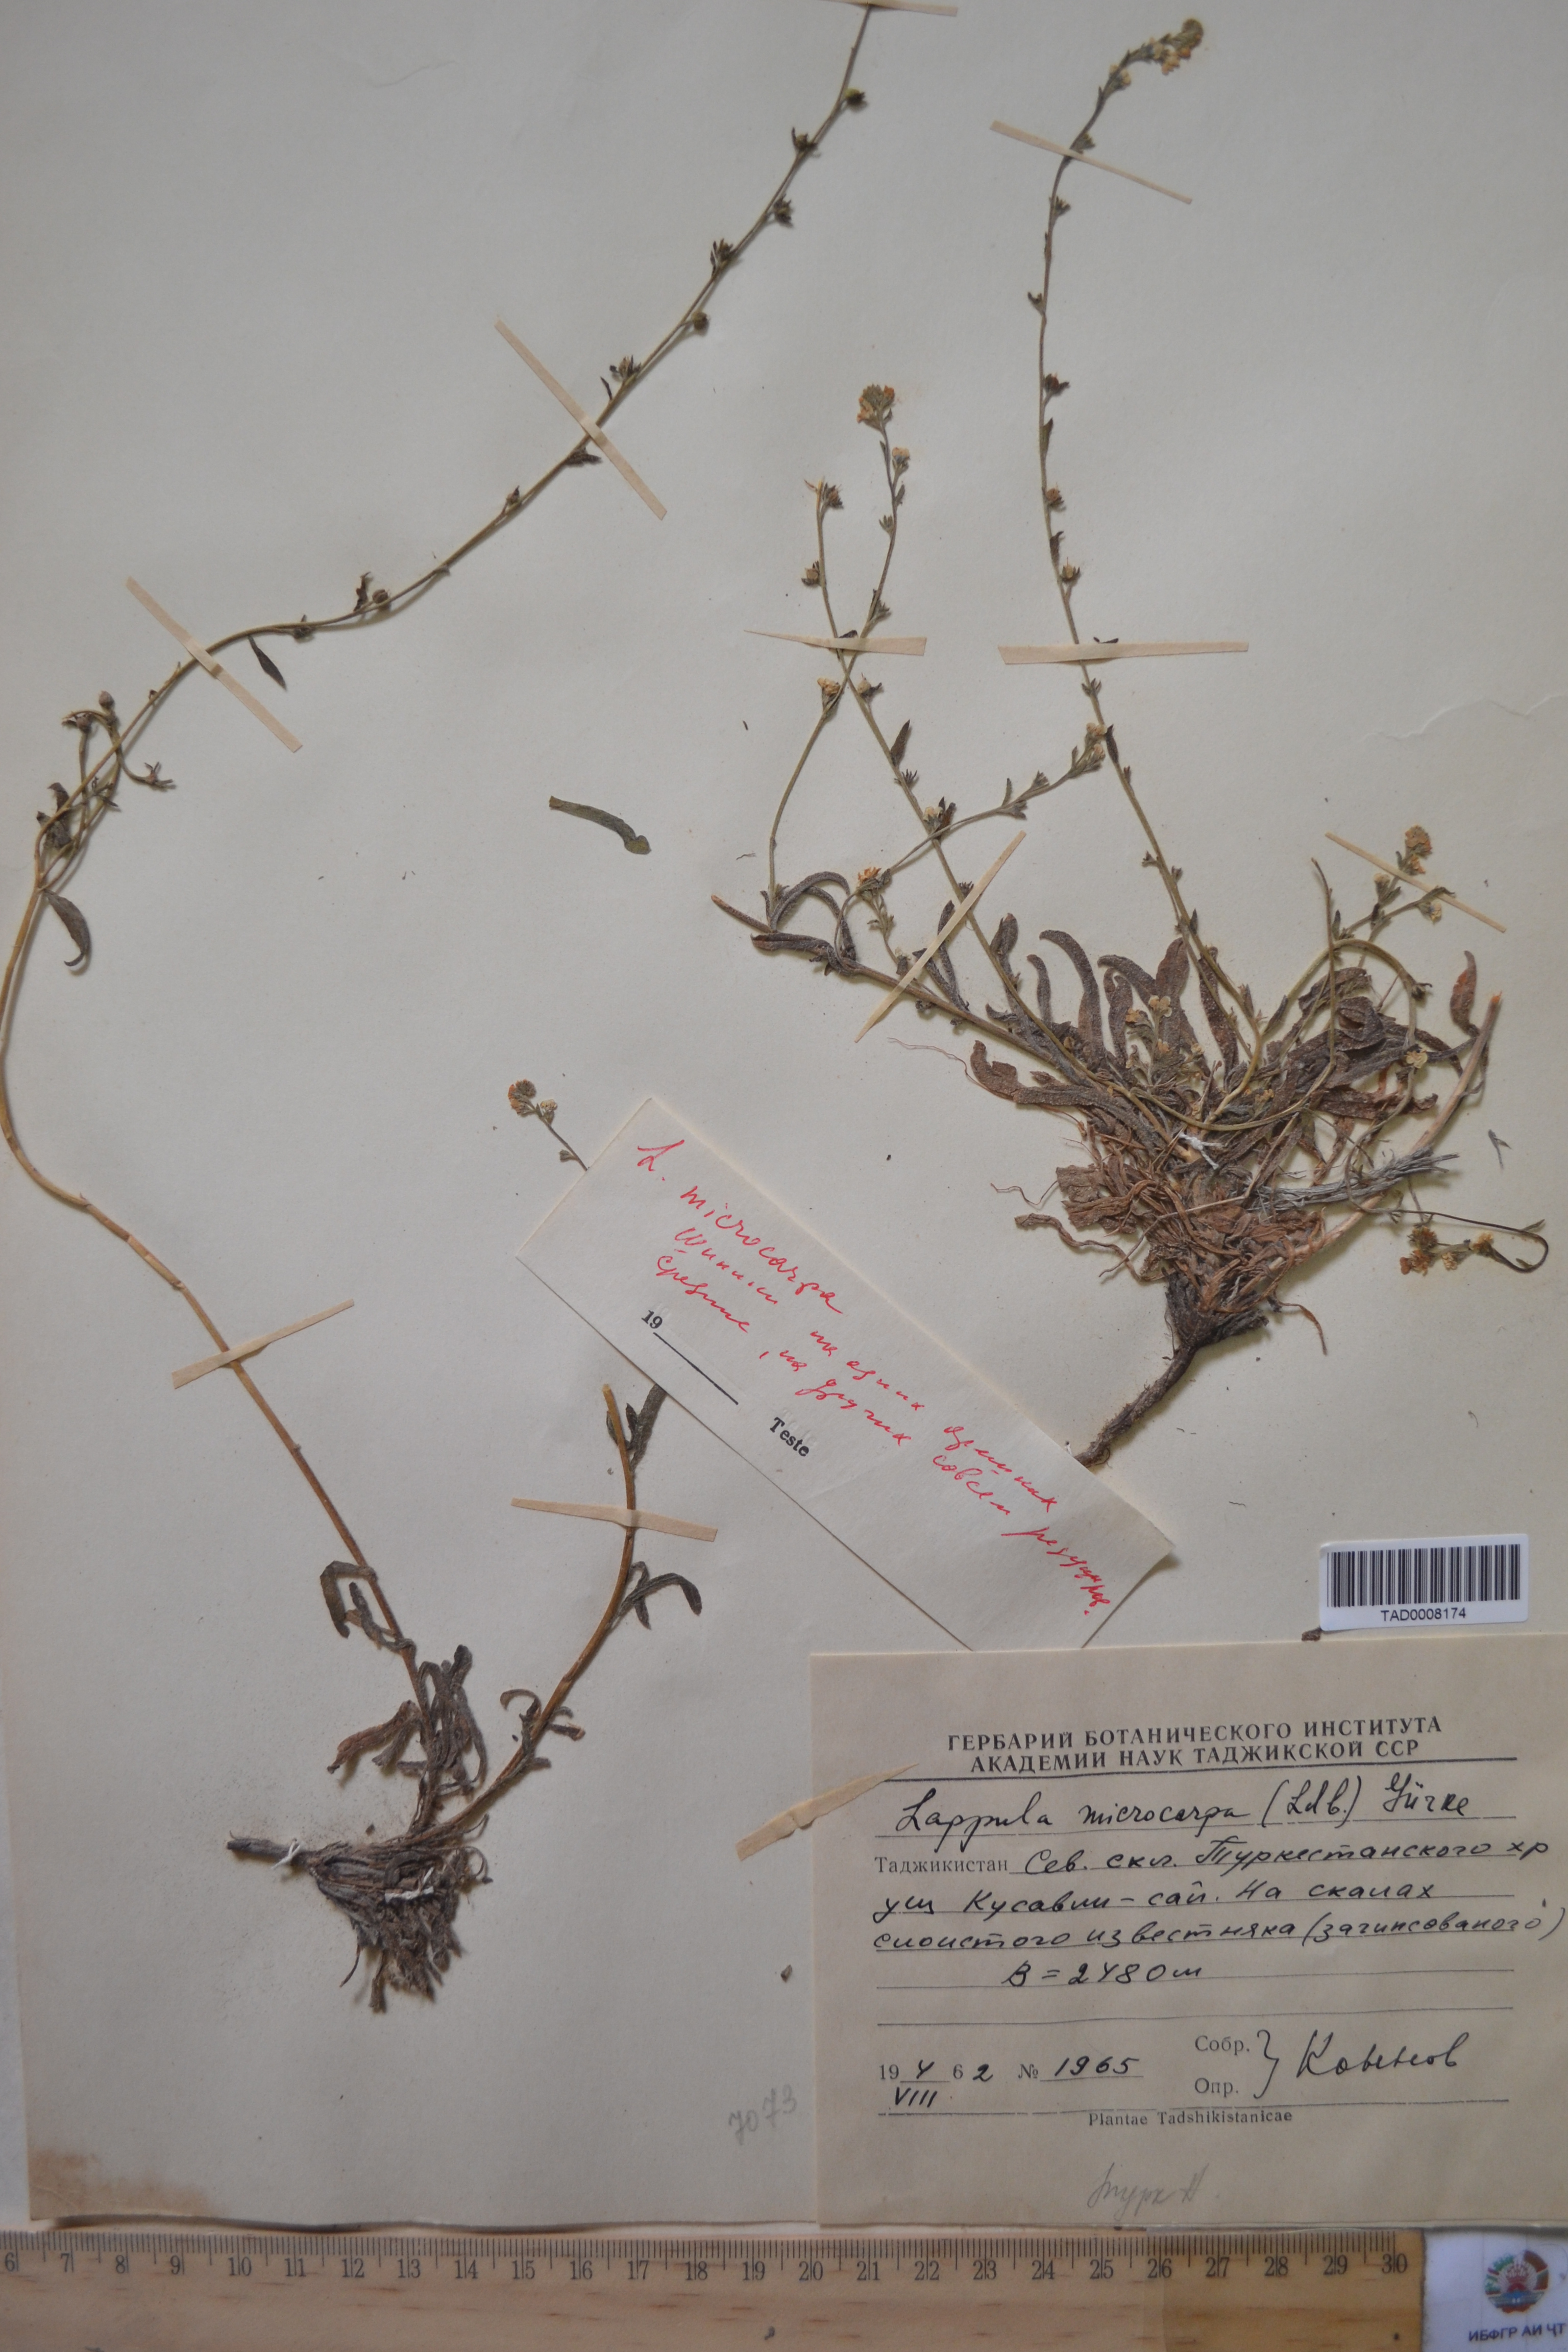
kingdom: Plantae
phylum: Tracheophyta
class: Magnoliopsida
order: Boraginales
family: Boraginaceae
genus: Lappula
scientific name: Lappula microcarpa
